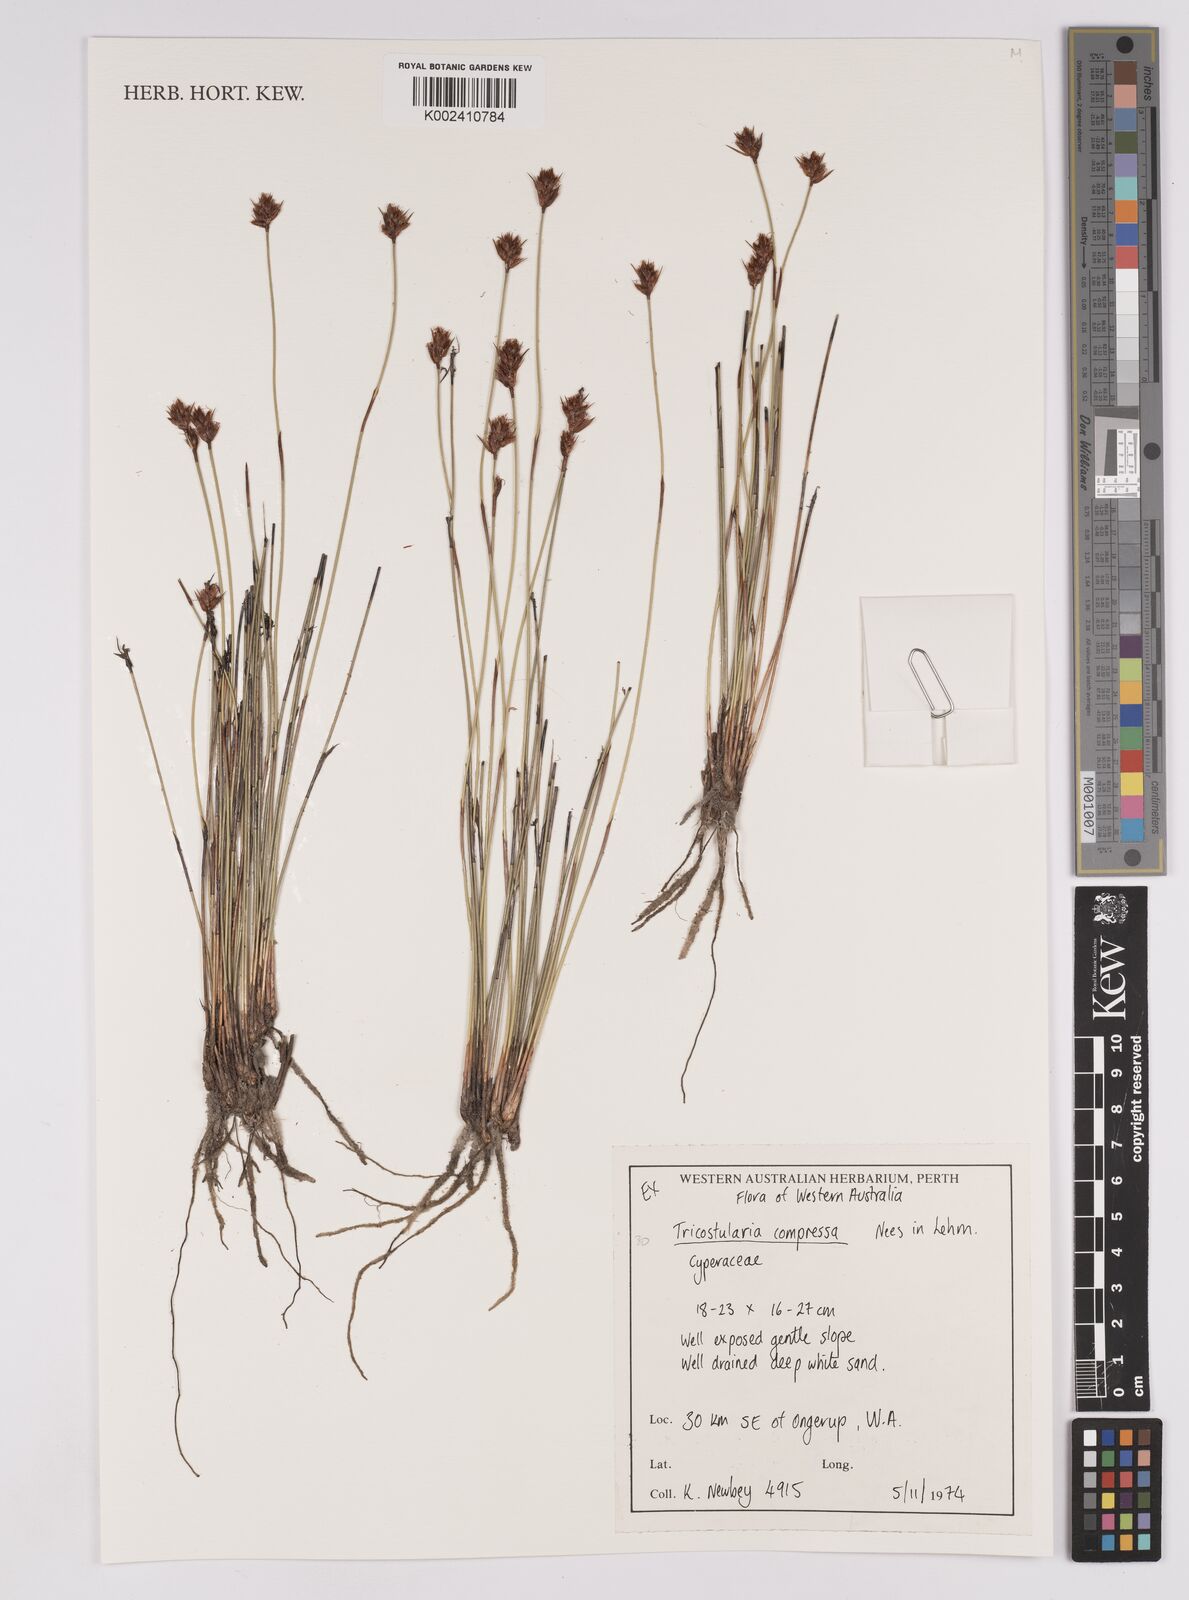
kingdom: Plantae
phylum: Tracheophyta
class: Liliopsida
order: Poales
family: Cyperaceae
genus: Tricostularia
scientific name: Tricostularia compressa
